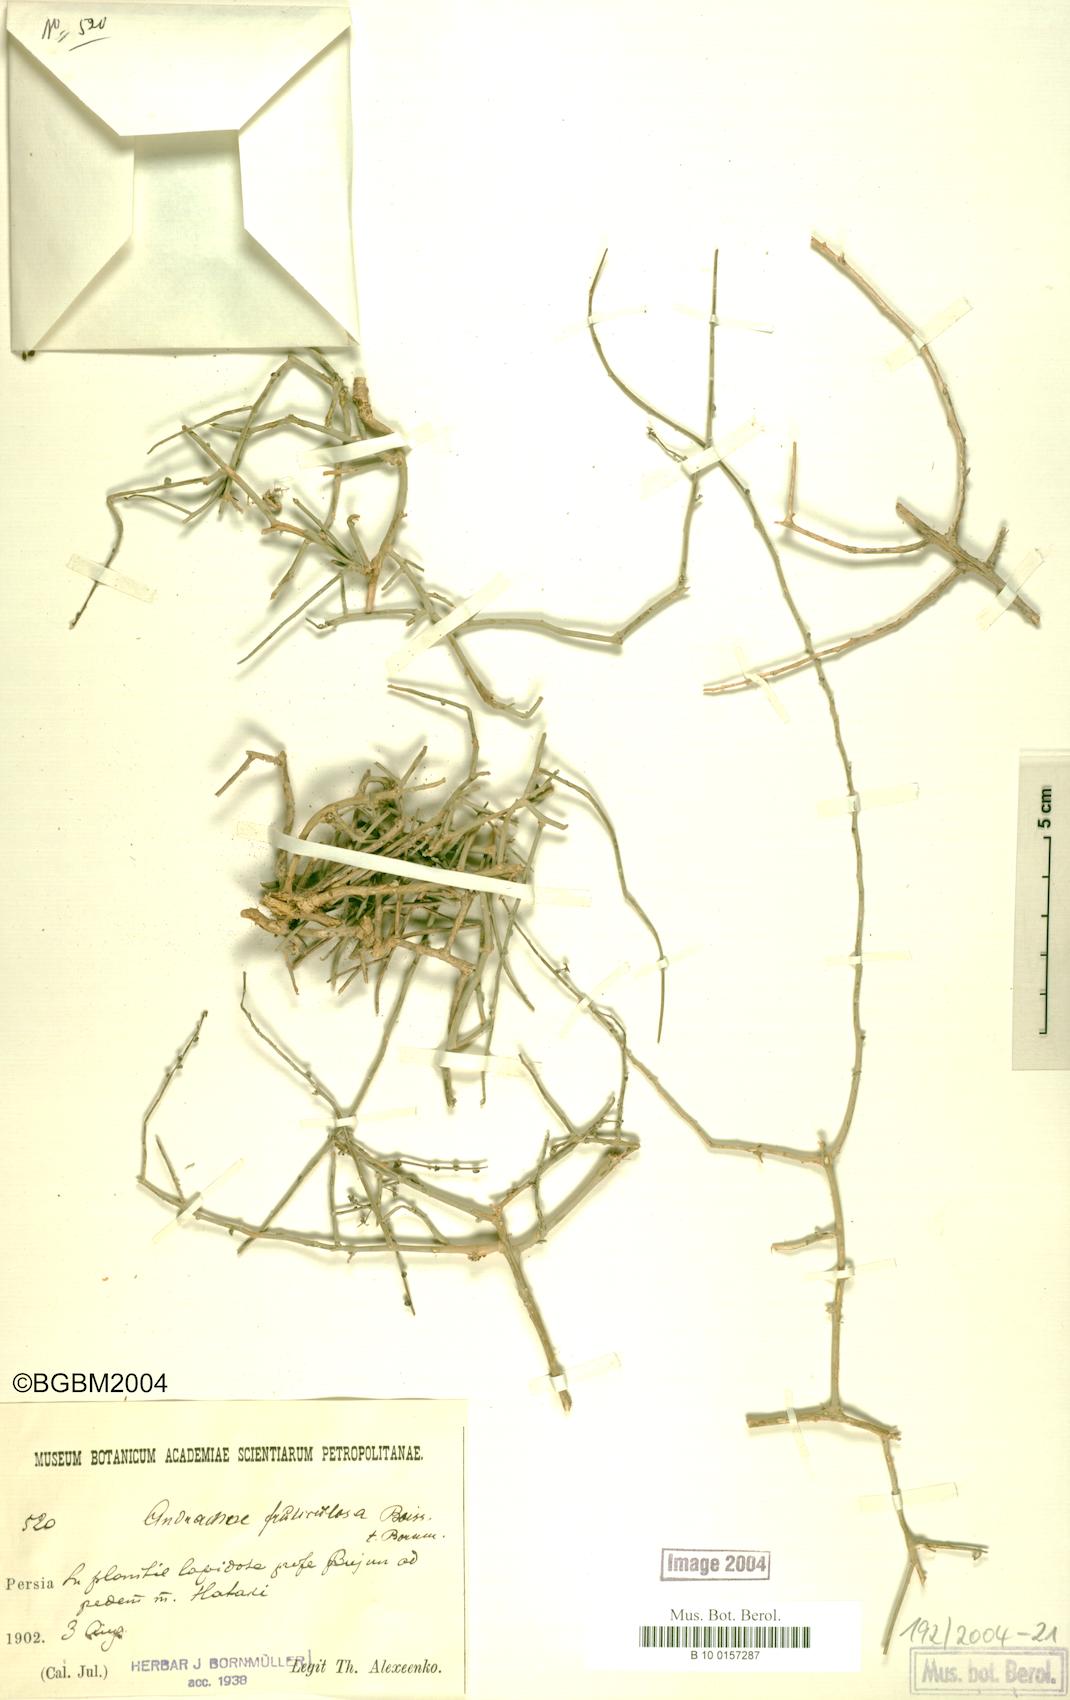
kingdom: Plantae
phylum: Tracheophyta
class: Magnoliopsida
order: Malpighiales
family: Phyllanthaceae
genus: Andrachne
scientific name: Andrachne fruticulosa
